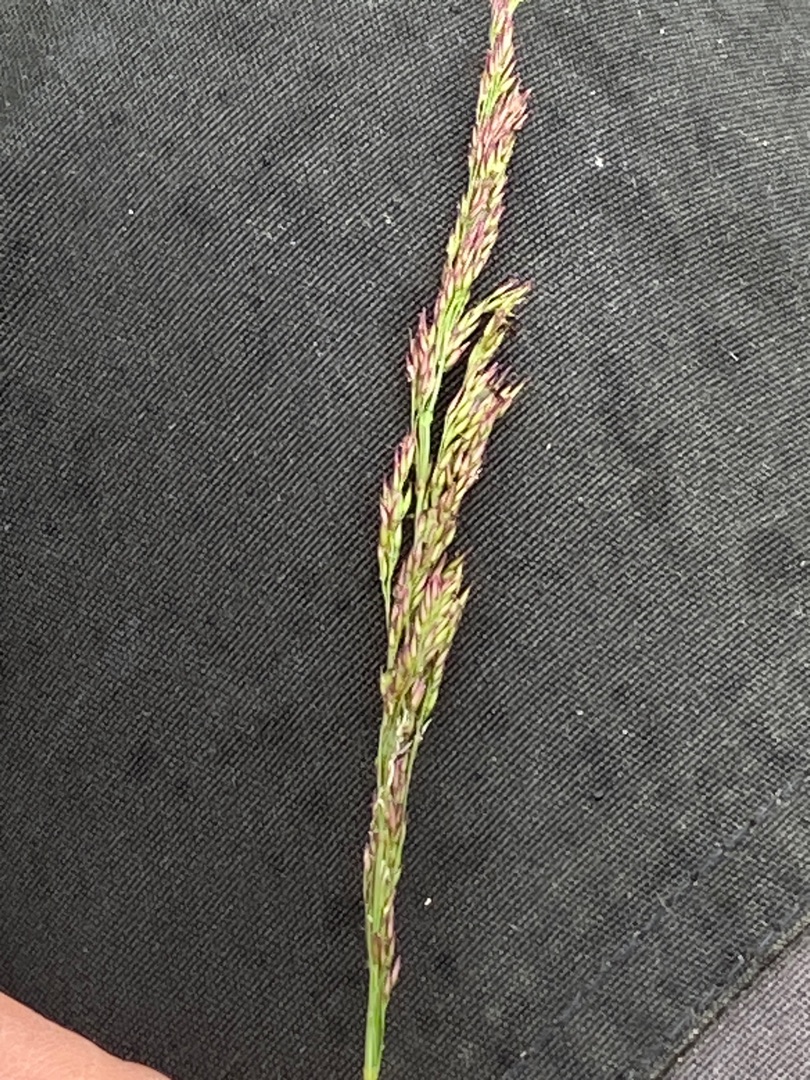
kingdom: Plantae
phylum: Tracheophyta
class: Liliopsida
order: Poales
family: Poaceae
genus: Agrostis
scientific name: Agrostis stolonifera
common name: Kryb-hvene
